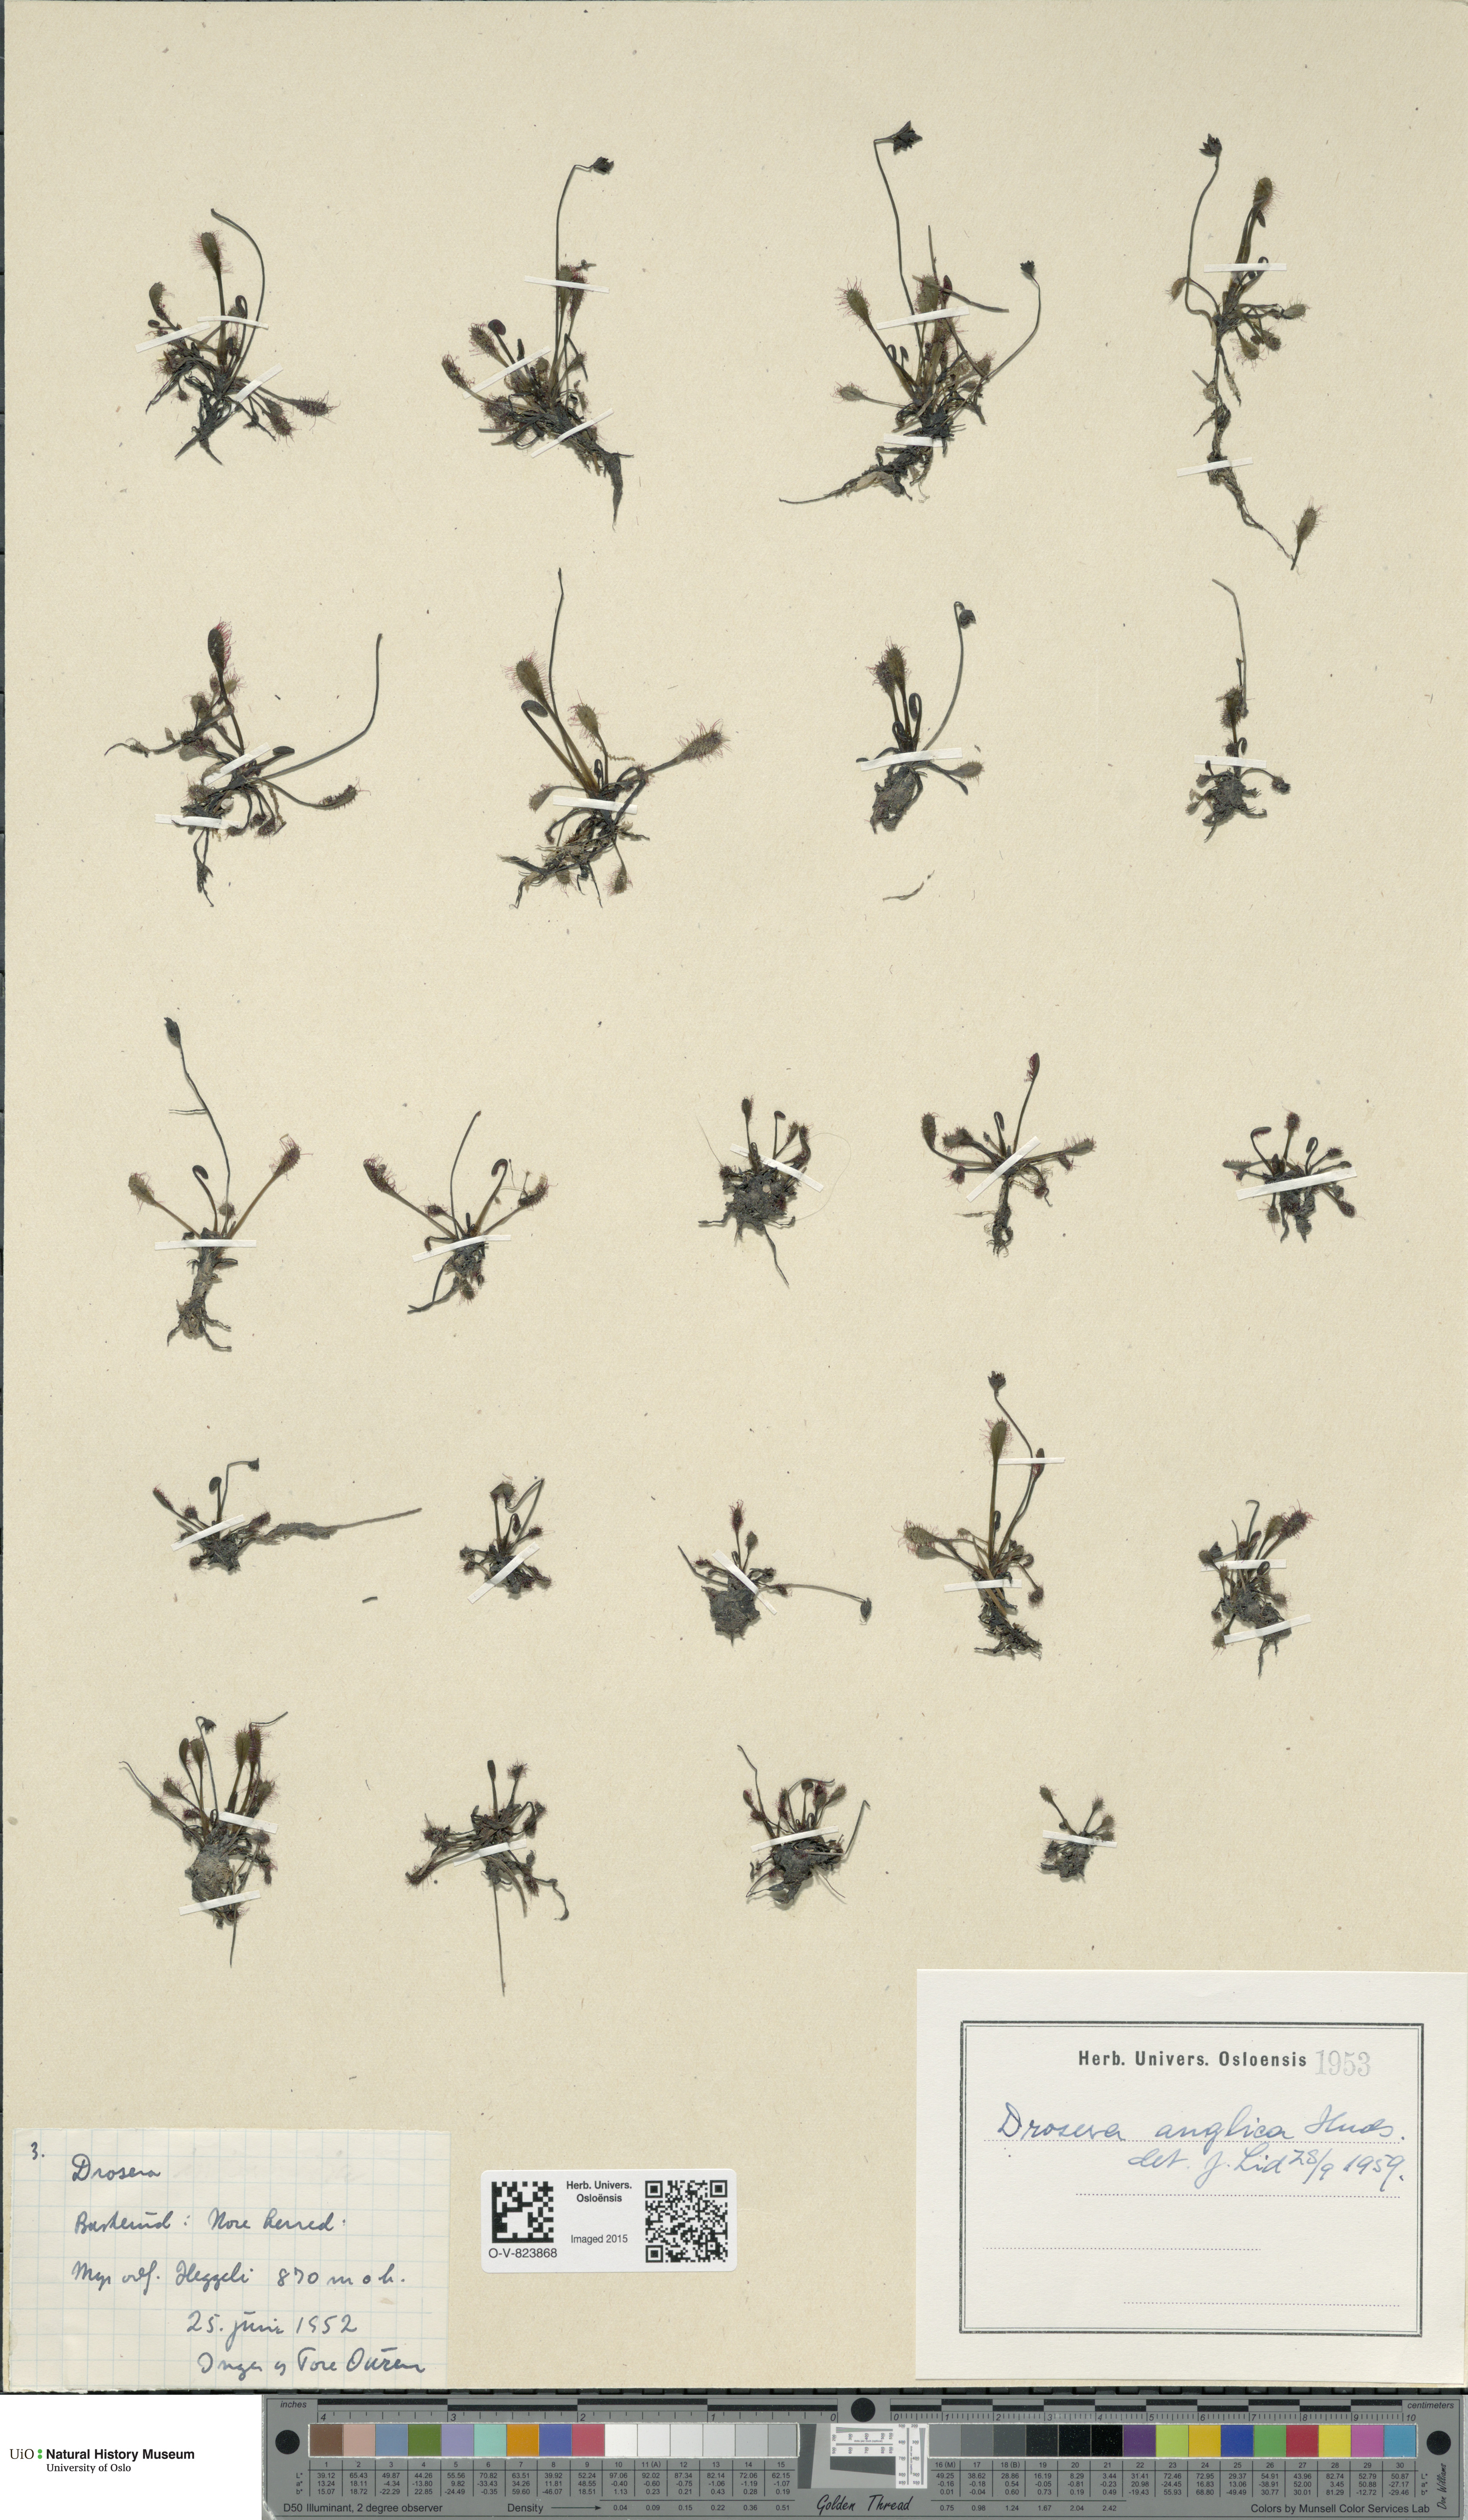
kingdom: Plantae
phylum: Tracheophyta
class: Magnoliopsida
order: Caryophyllales
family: Droseraceae
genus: Drosera
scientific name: Drosera anglica
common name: Great sundew
